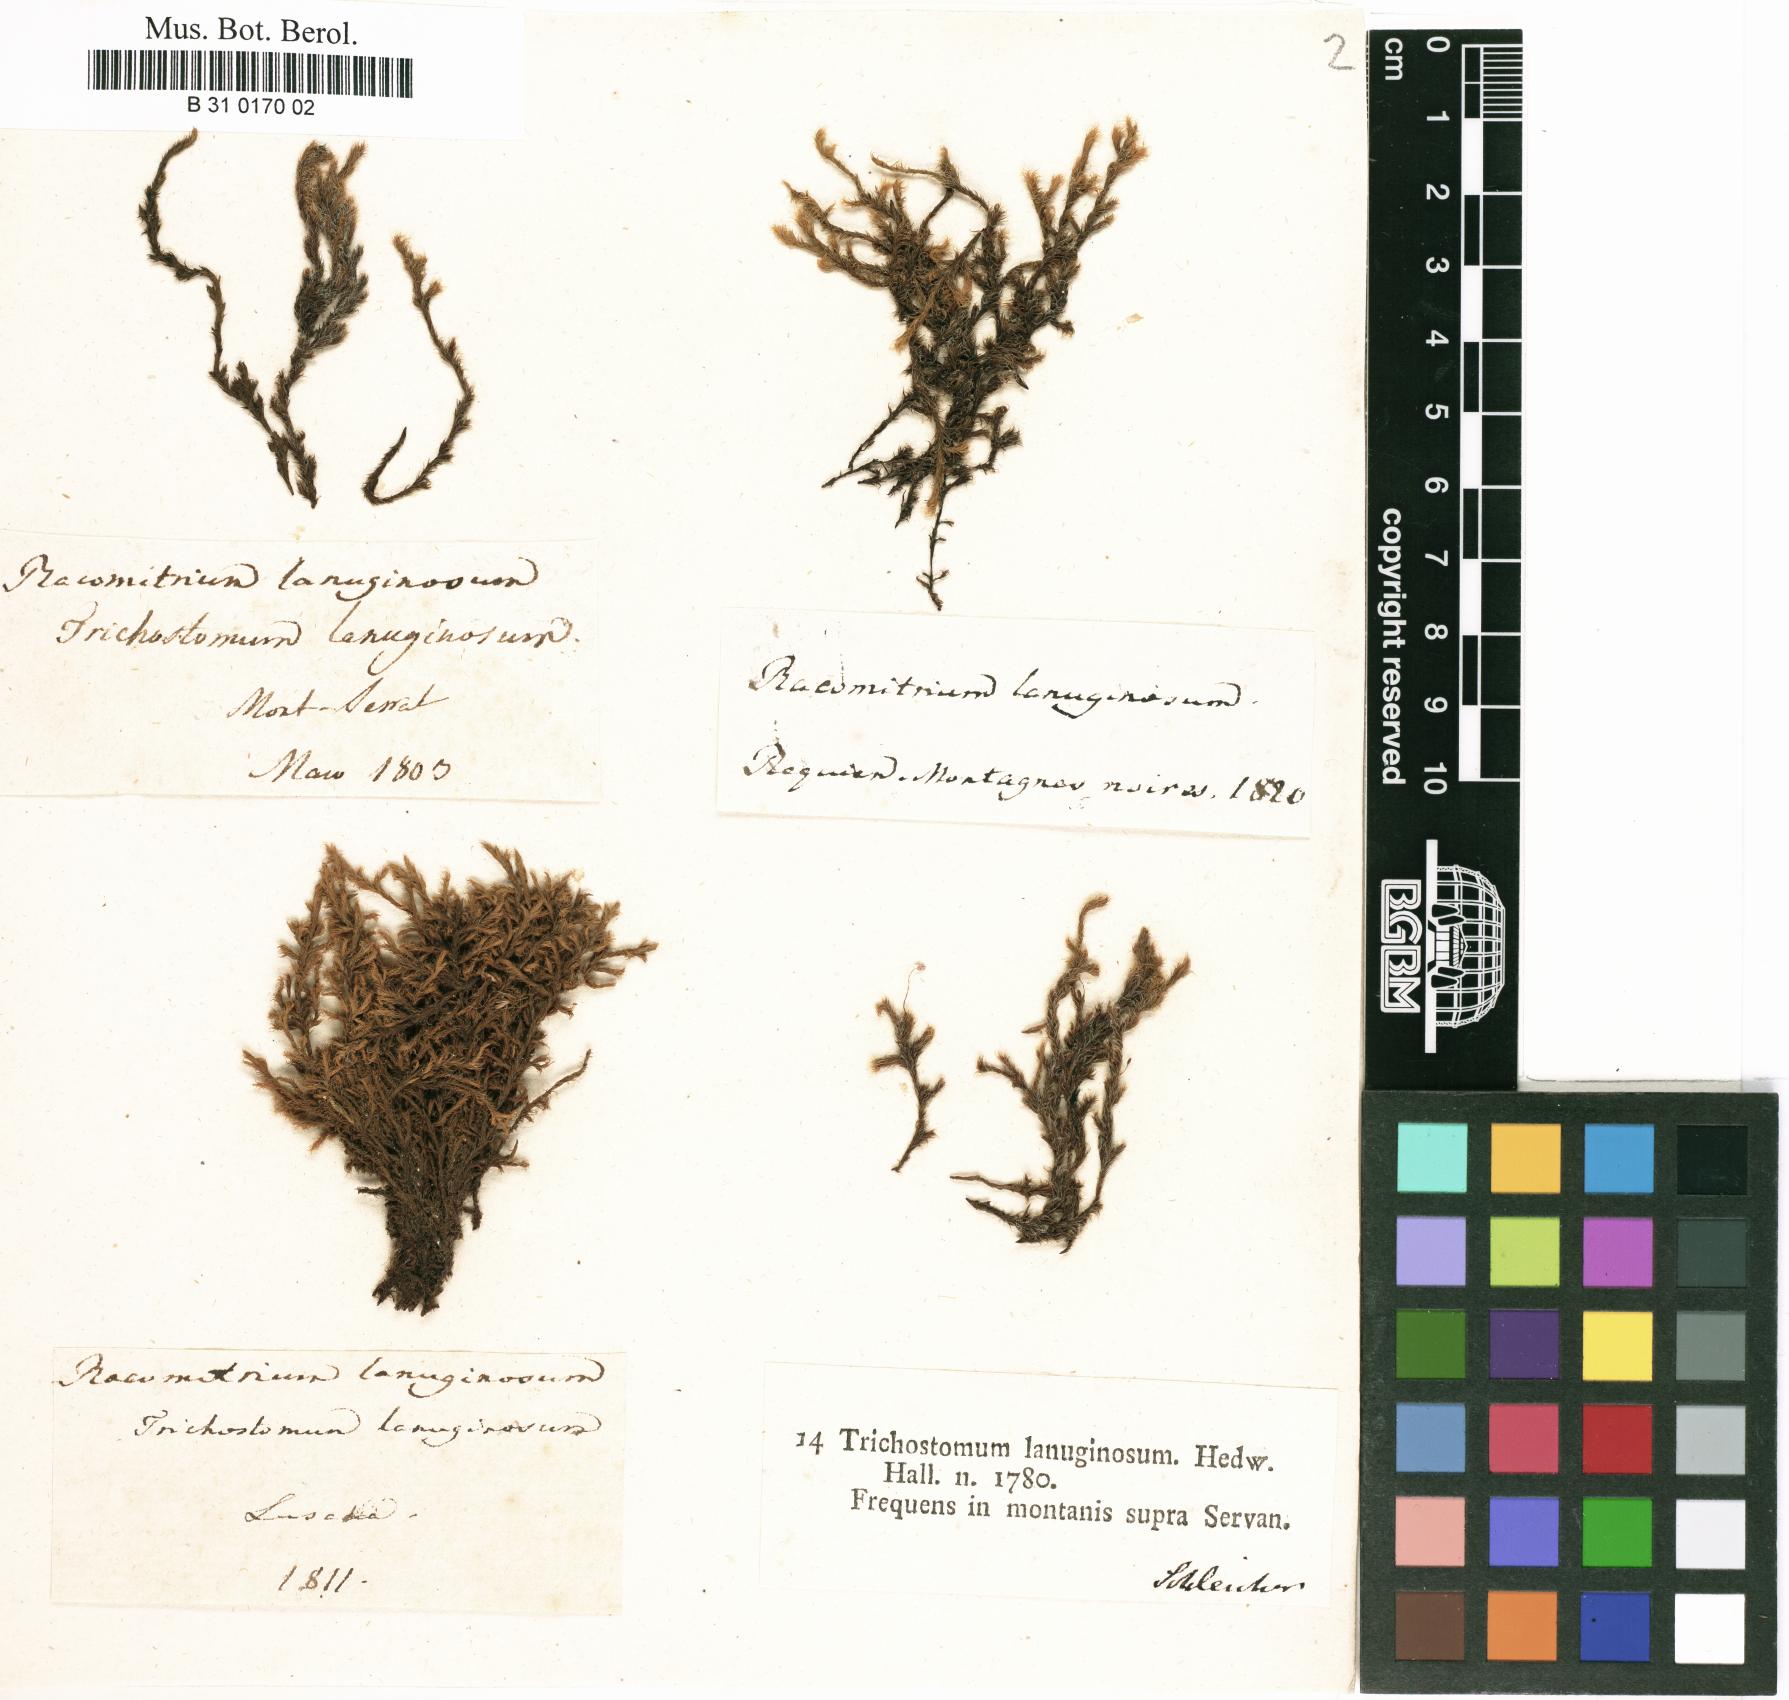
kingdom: Plantae
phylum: Bryophyta
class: Bryopsida
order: Grimmiales
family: Grimmiaceae
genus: Racomitrium
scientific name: Racomitrium lanuginosum
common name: Hoary rock moss
